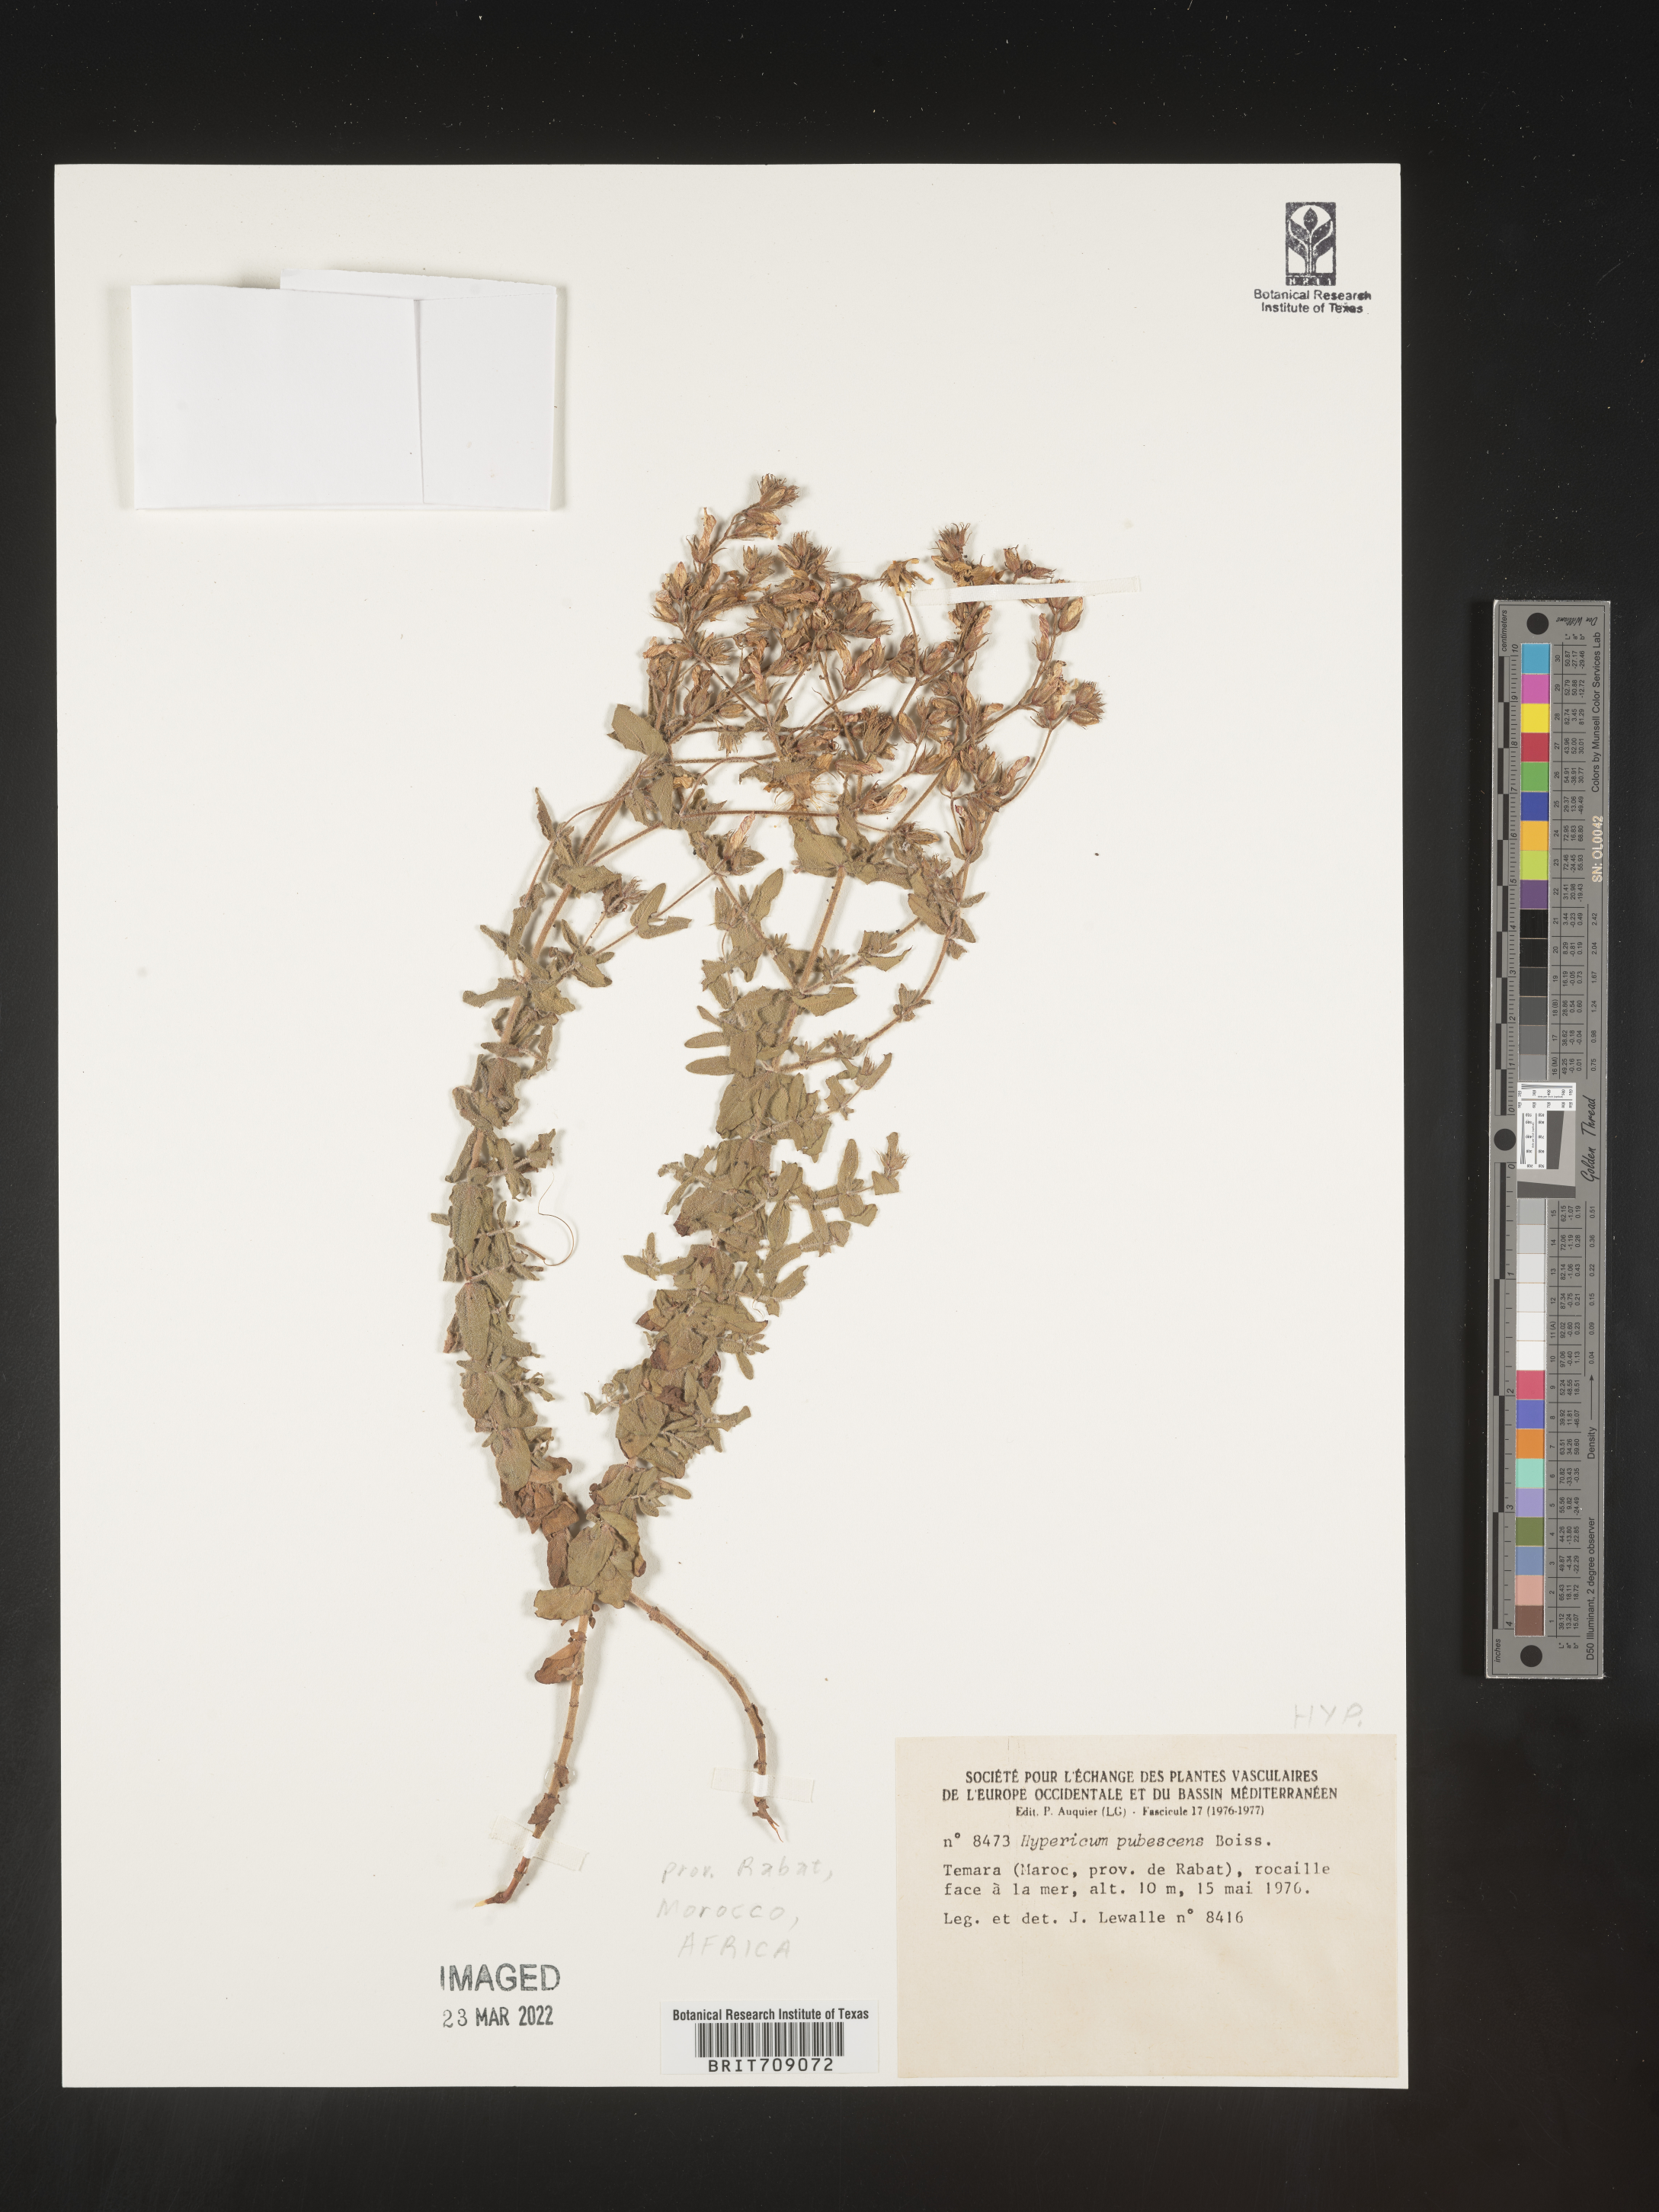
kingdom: Plantae
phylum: Tracheophyta
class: Magnoliopsida
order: Malpighiales
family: Hypericaceae
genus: Hypericum
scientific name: Hypericum
